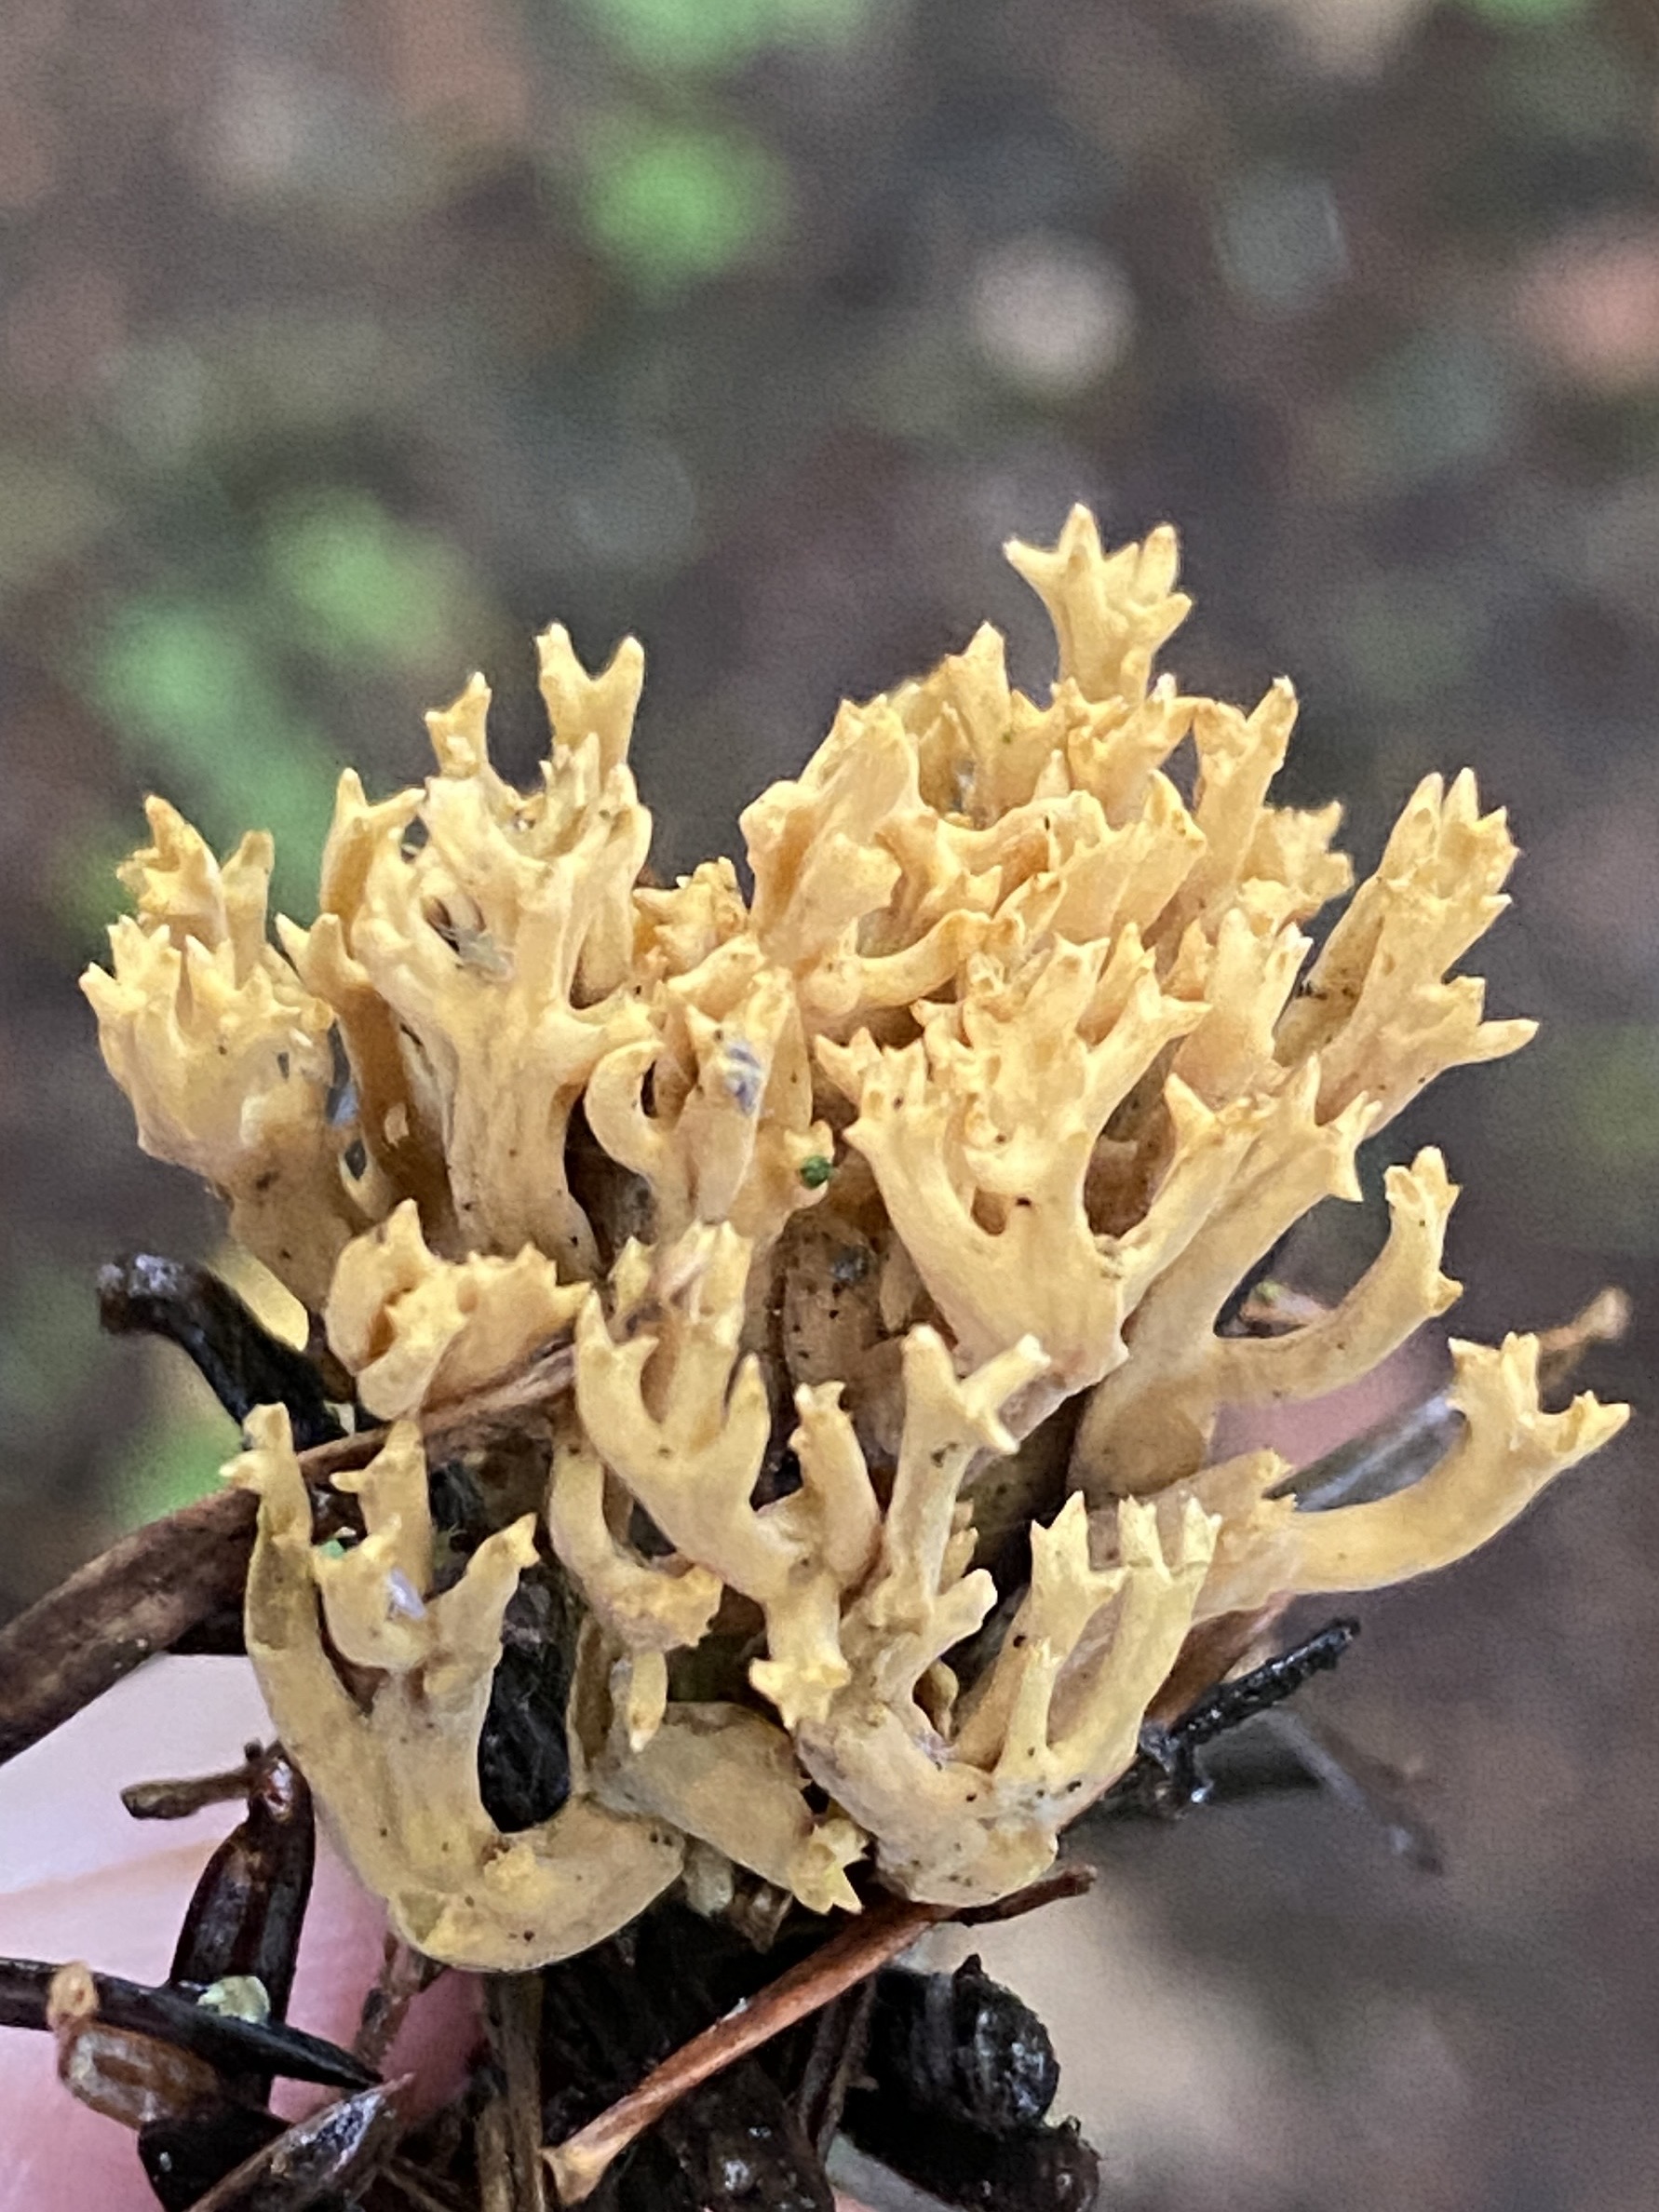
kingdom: Fungi
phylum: Basidiomycota
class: Agaricomycetes
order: Gomphales
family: Gomphaceae
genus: Phaeoclavulina
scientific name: Phaeoclavulina eumorpha
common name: gran-koralsvamp
